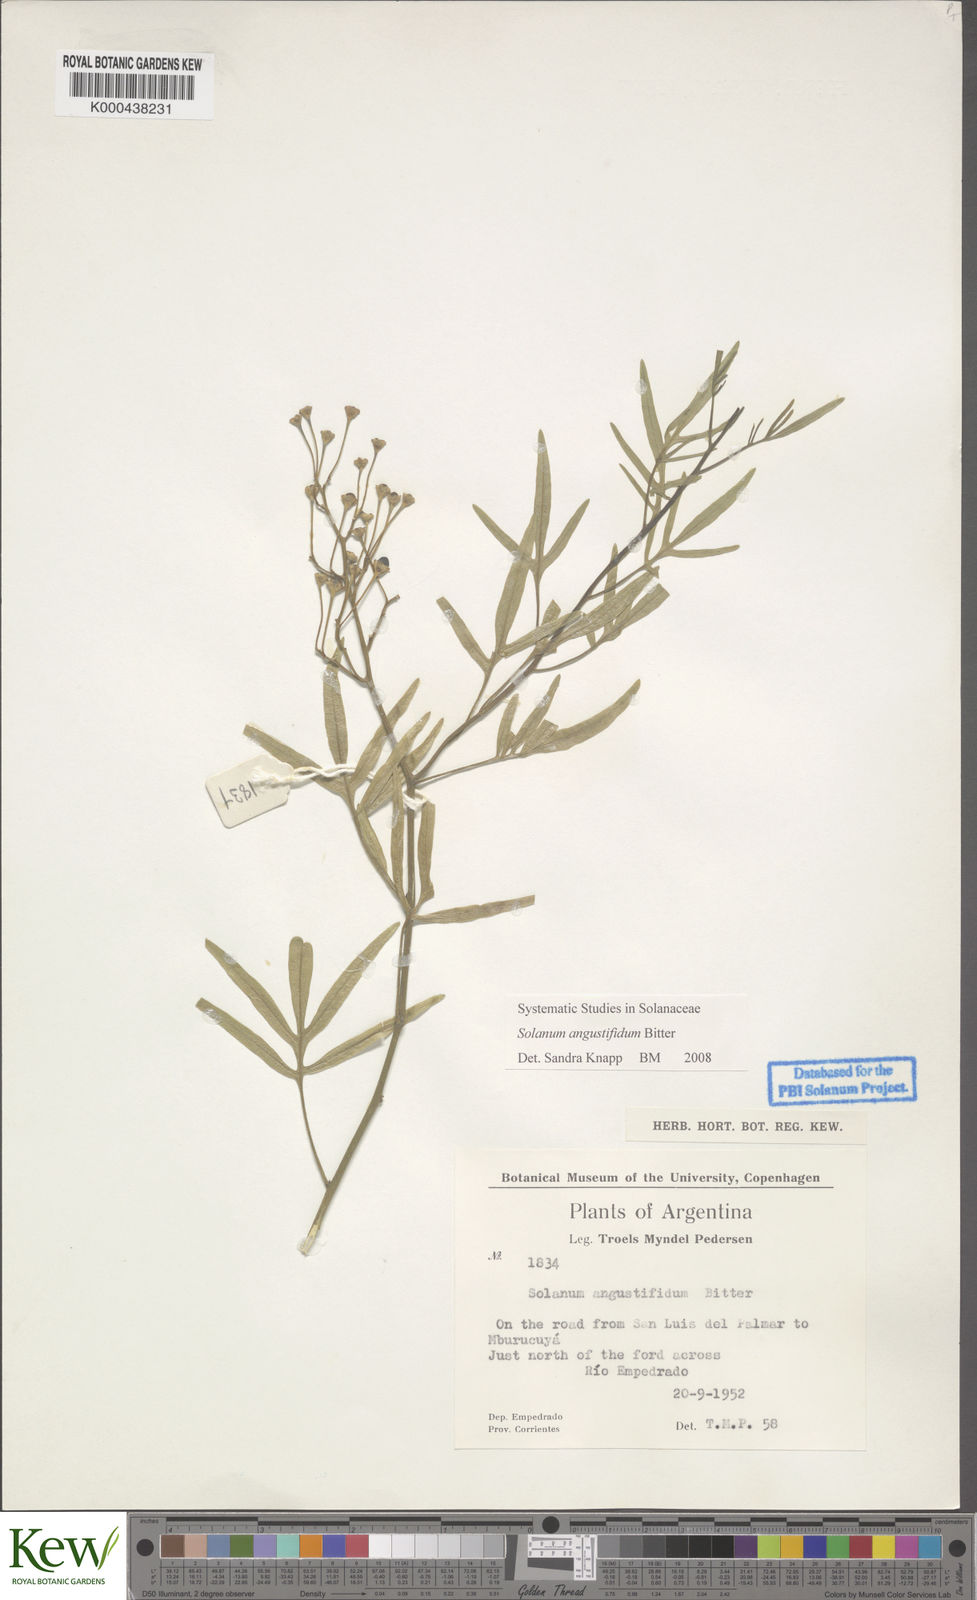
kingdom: Plantae
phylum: Tracheophyta
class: Magnoliopsida
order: Solanales
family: Solanaceae
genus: Solanum
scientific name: Solanum angustifidum
